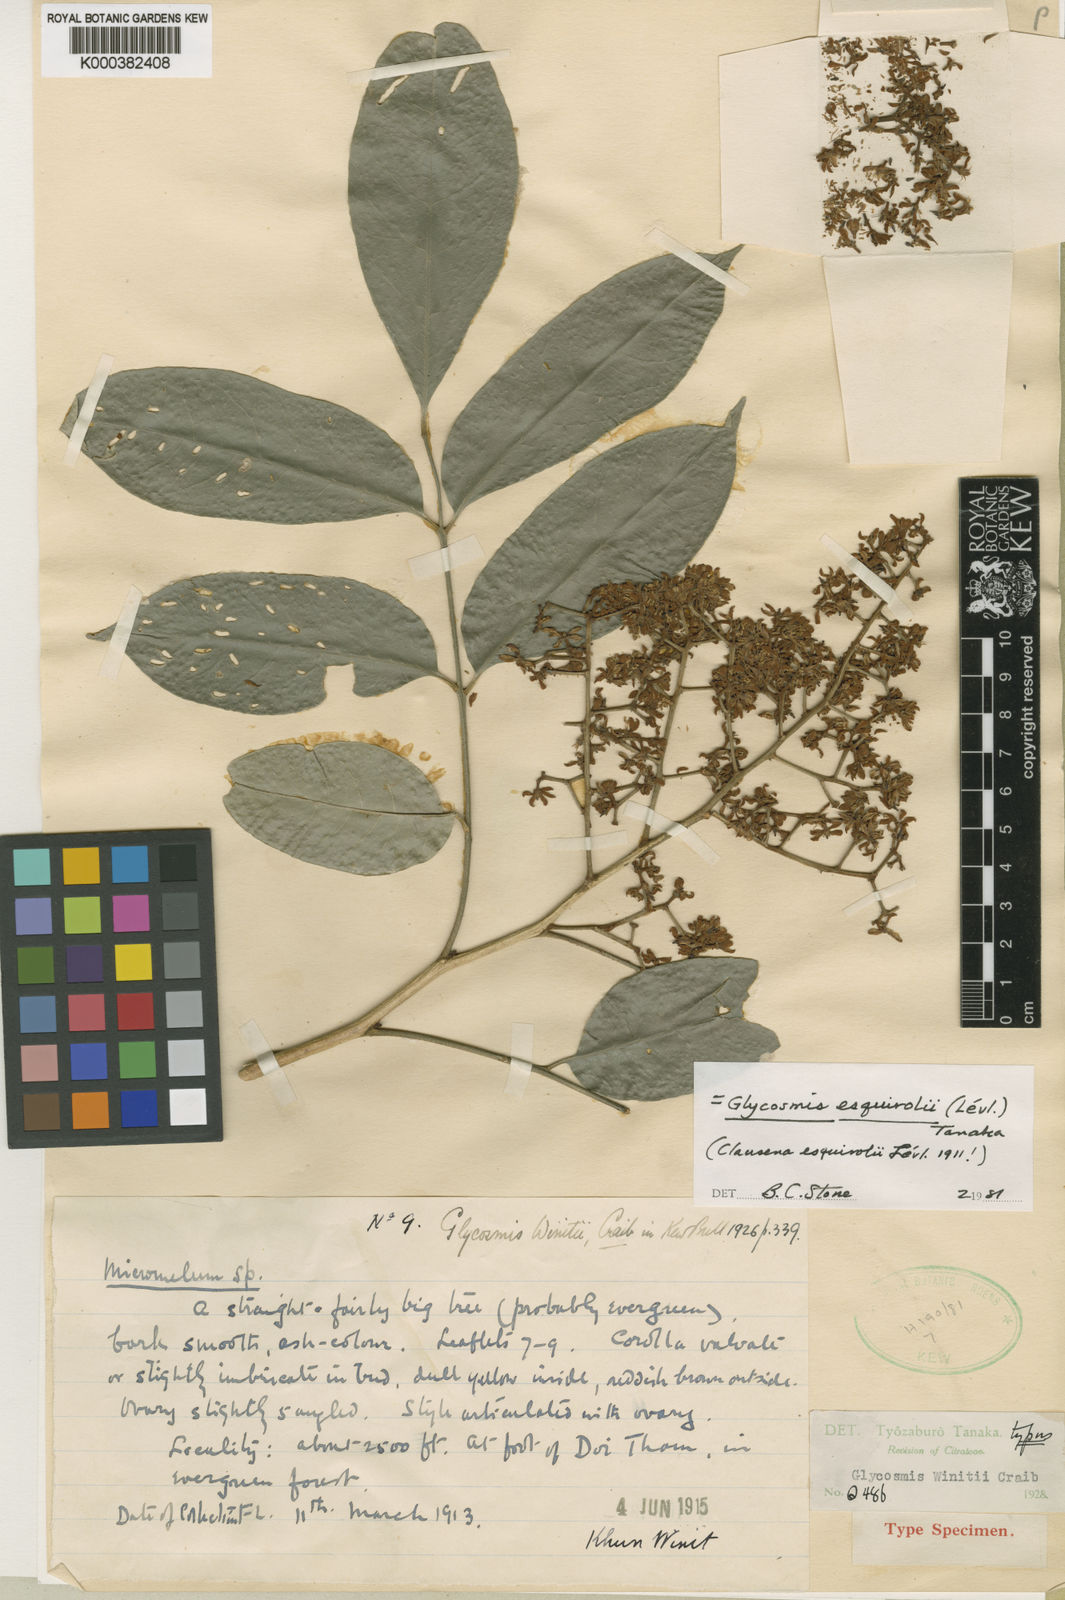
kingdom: Plantae
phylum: Tracheophyta
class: Magnoliopsida
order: Sapindales
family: Rutaceae
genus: Glycosmis
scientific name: Glycosmis
